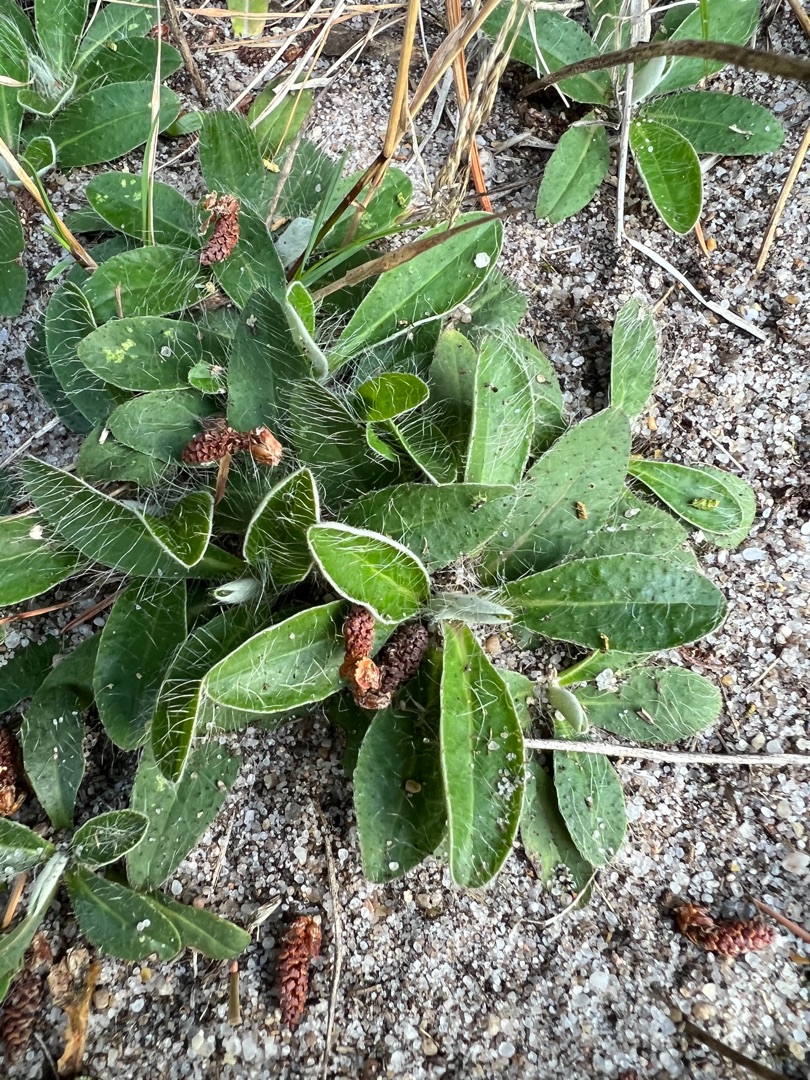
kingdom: Plantae
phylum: Tracheophyta
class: Magnoliopsida
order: Asterales
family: Asteraceae
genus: Pilosella
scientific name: Pilosella officinarum
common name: Håret høgeurt
